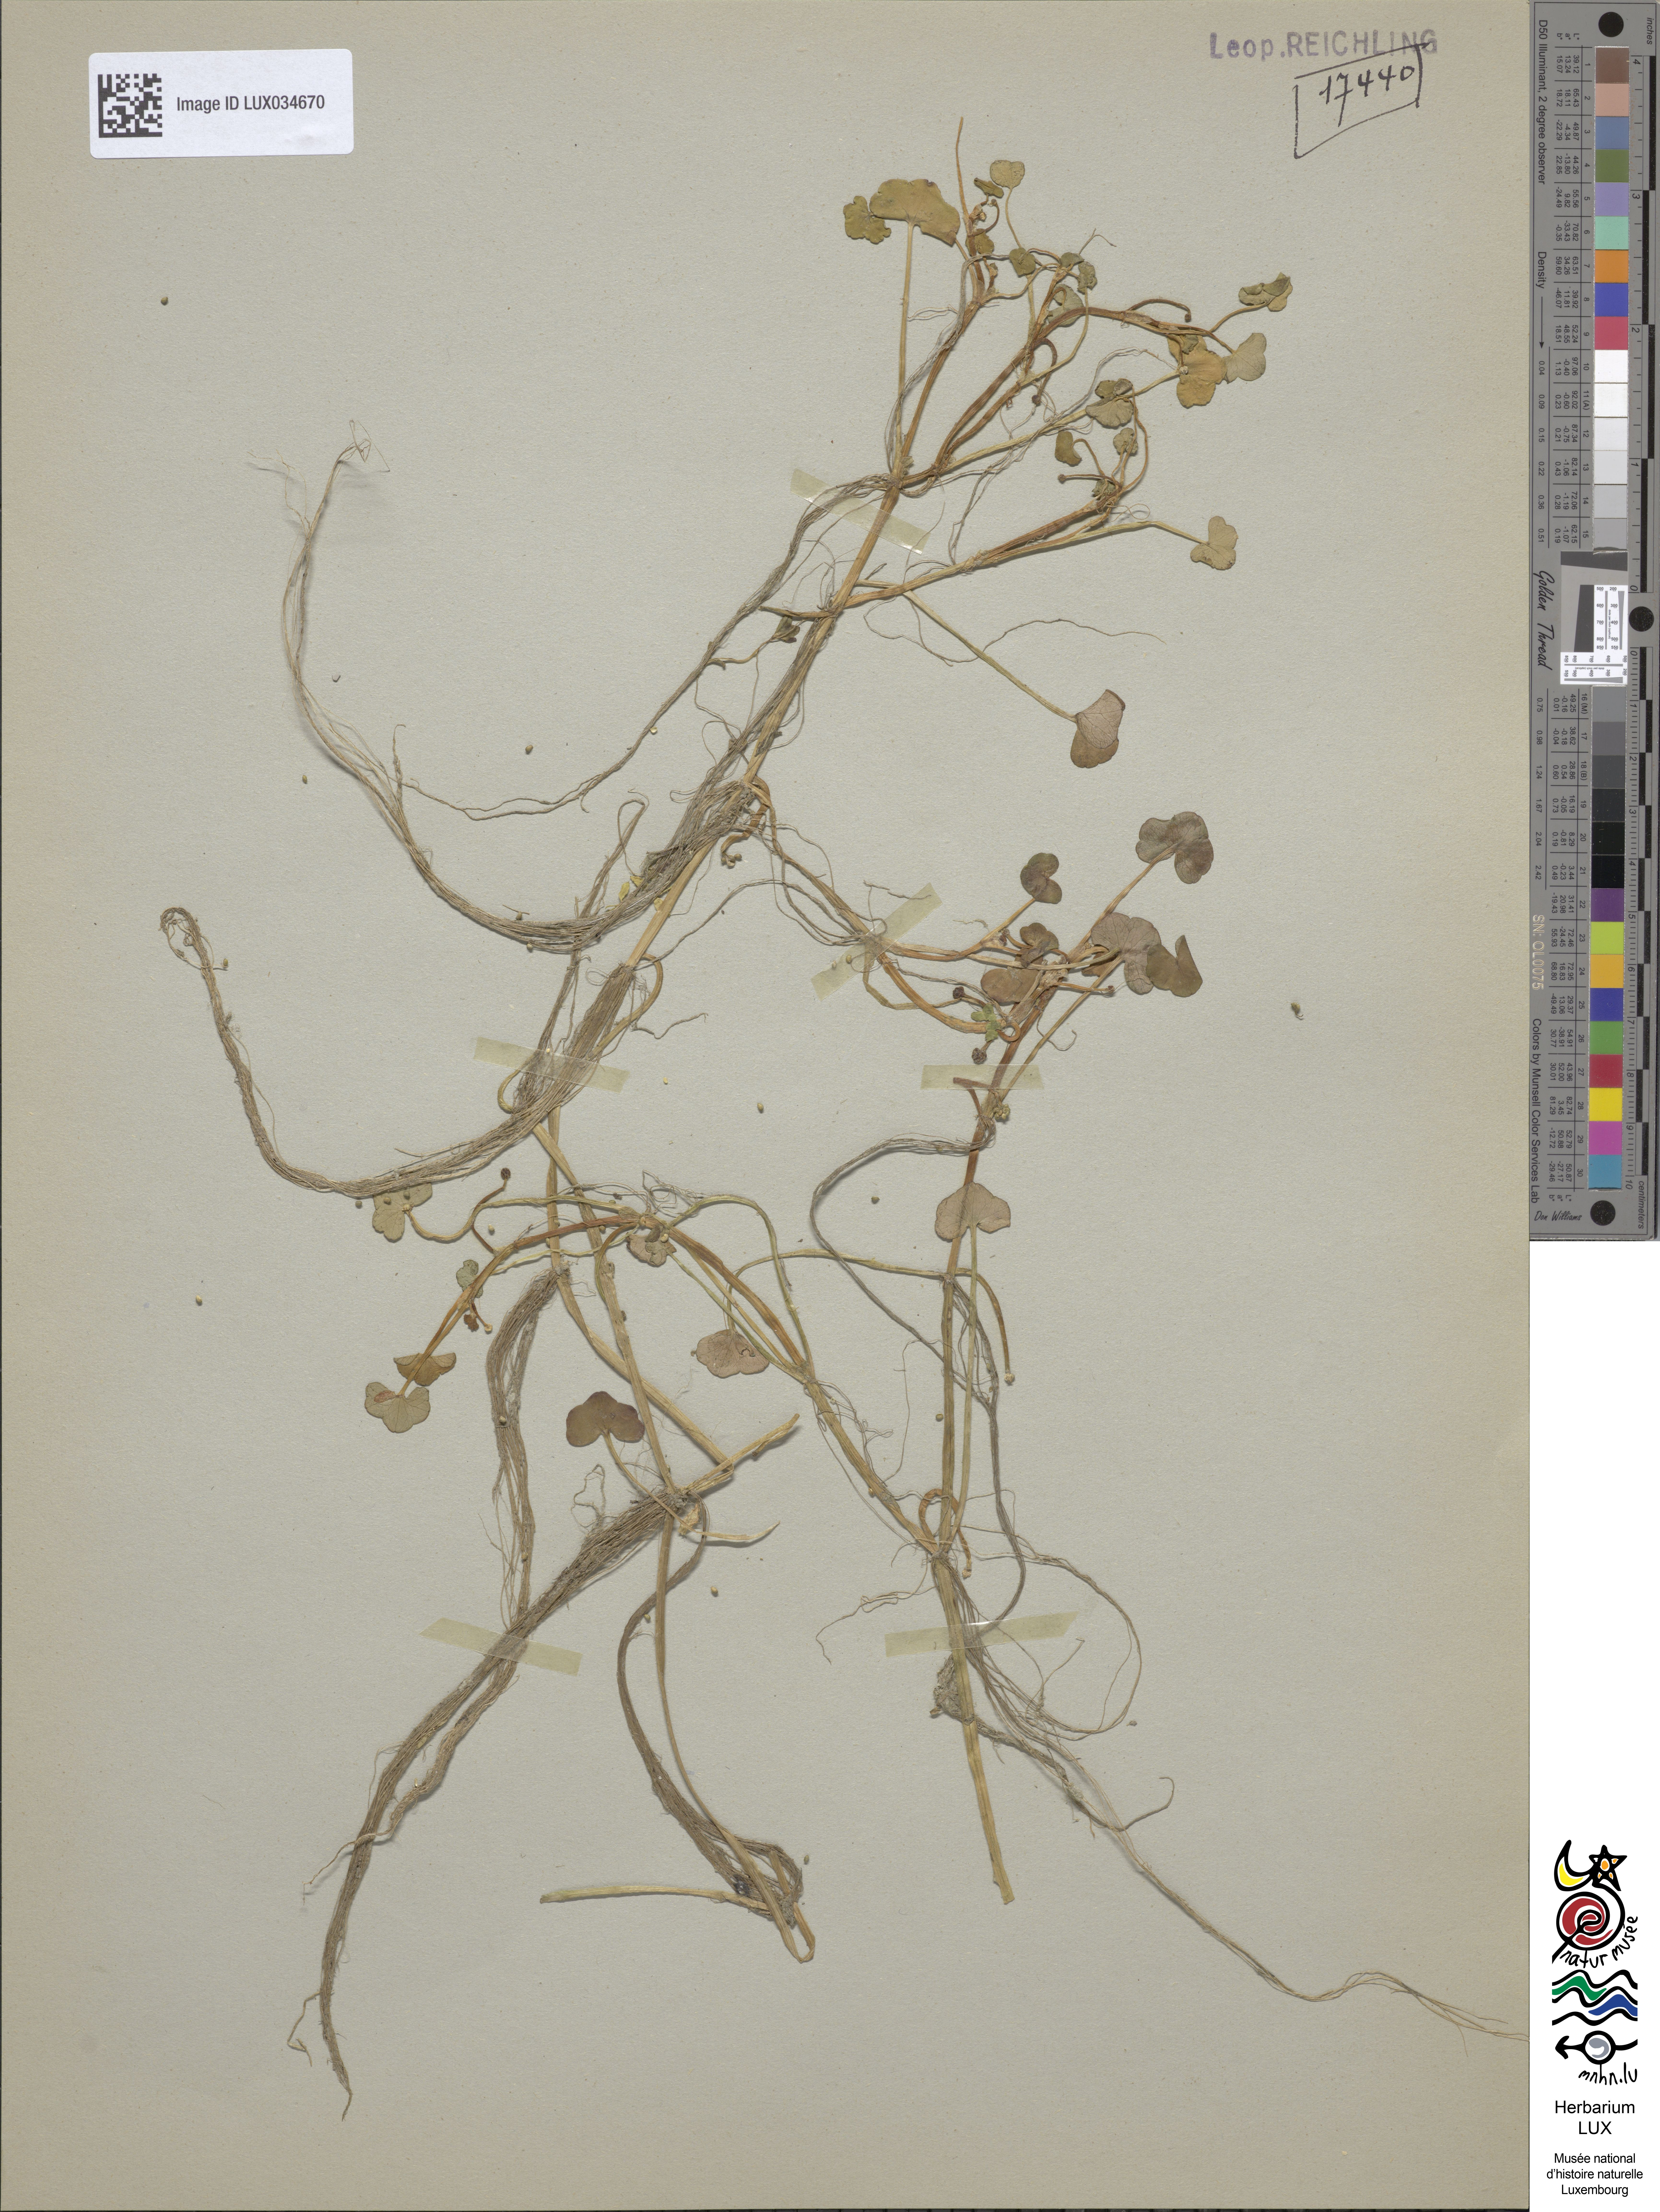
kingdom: Plantae
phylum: Tracheophyta
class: Magnoliopsida
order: Ranunculales
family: Ranunculaceae
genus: Ranunculus
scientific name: Ranunculus hederaceus
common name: Ivy-leaved crowfoot
